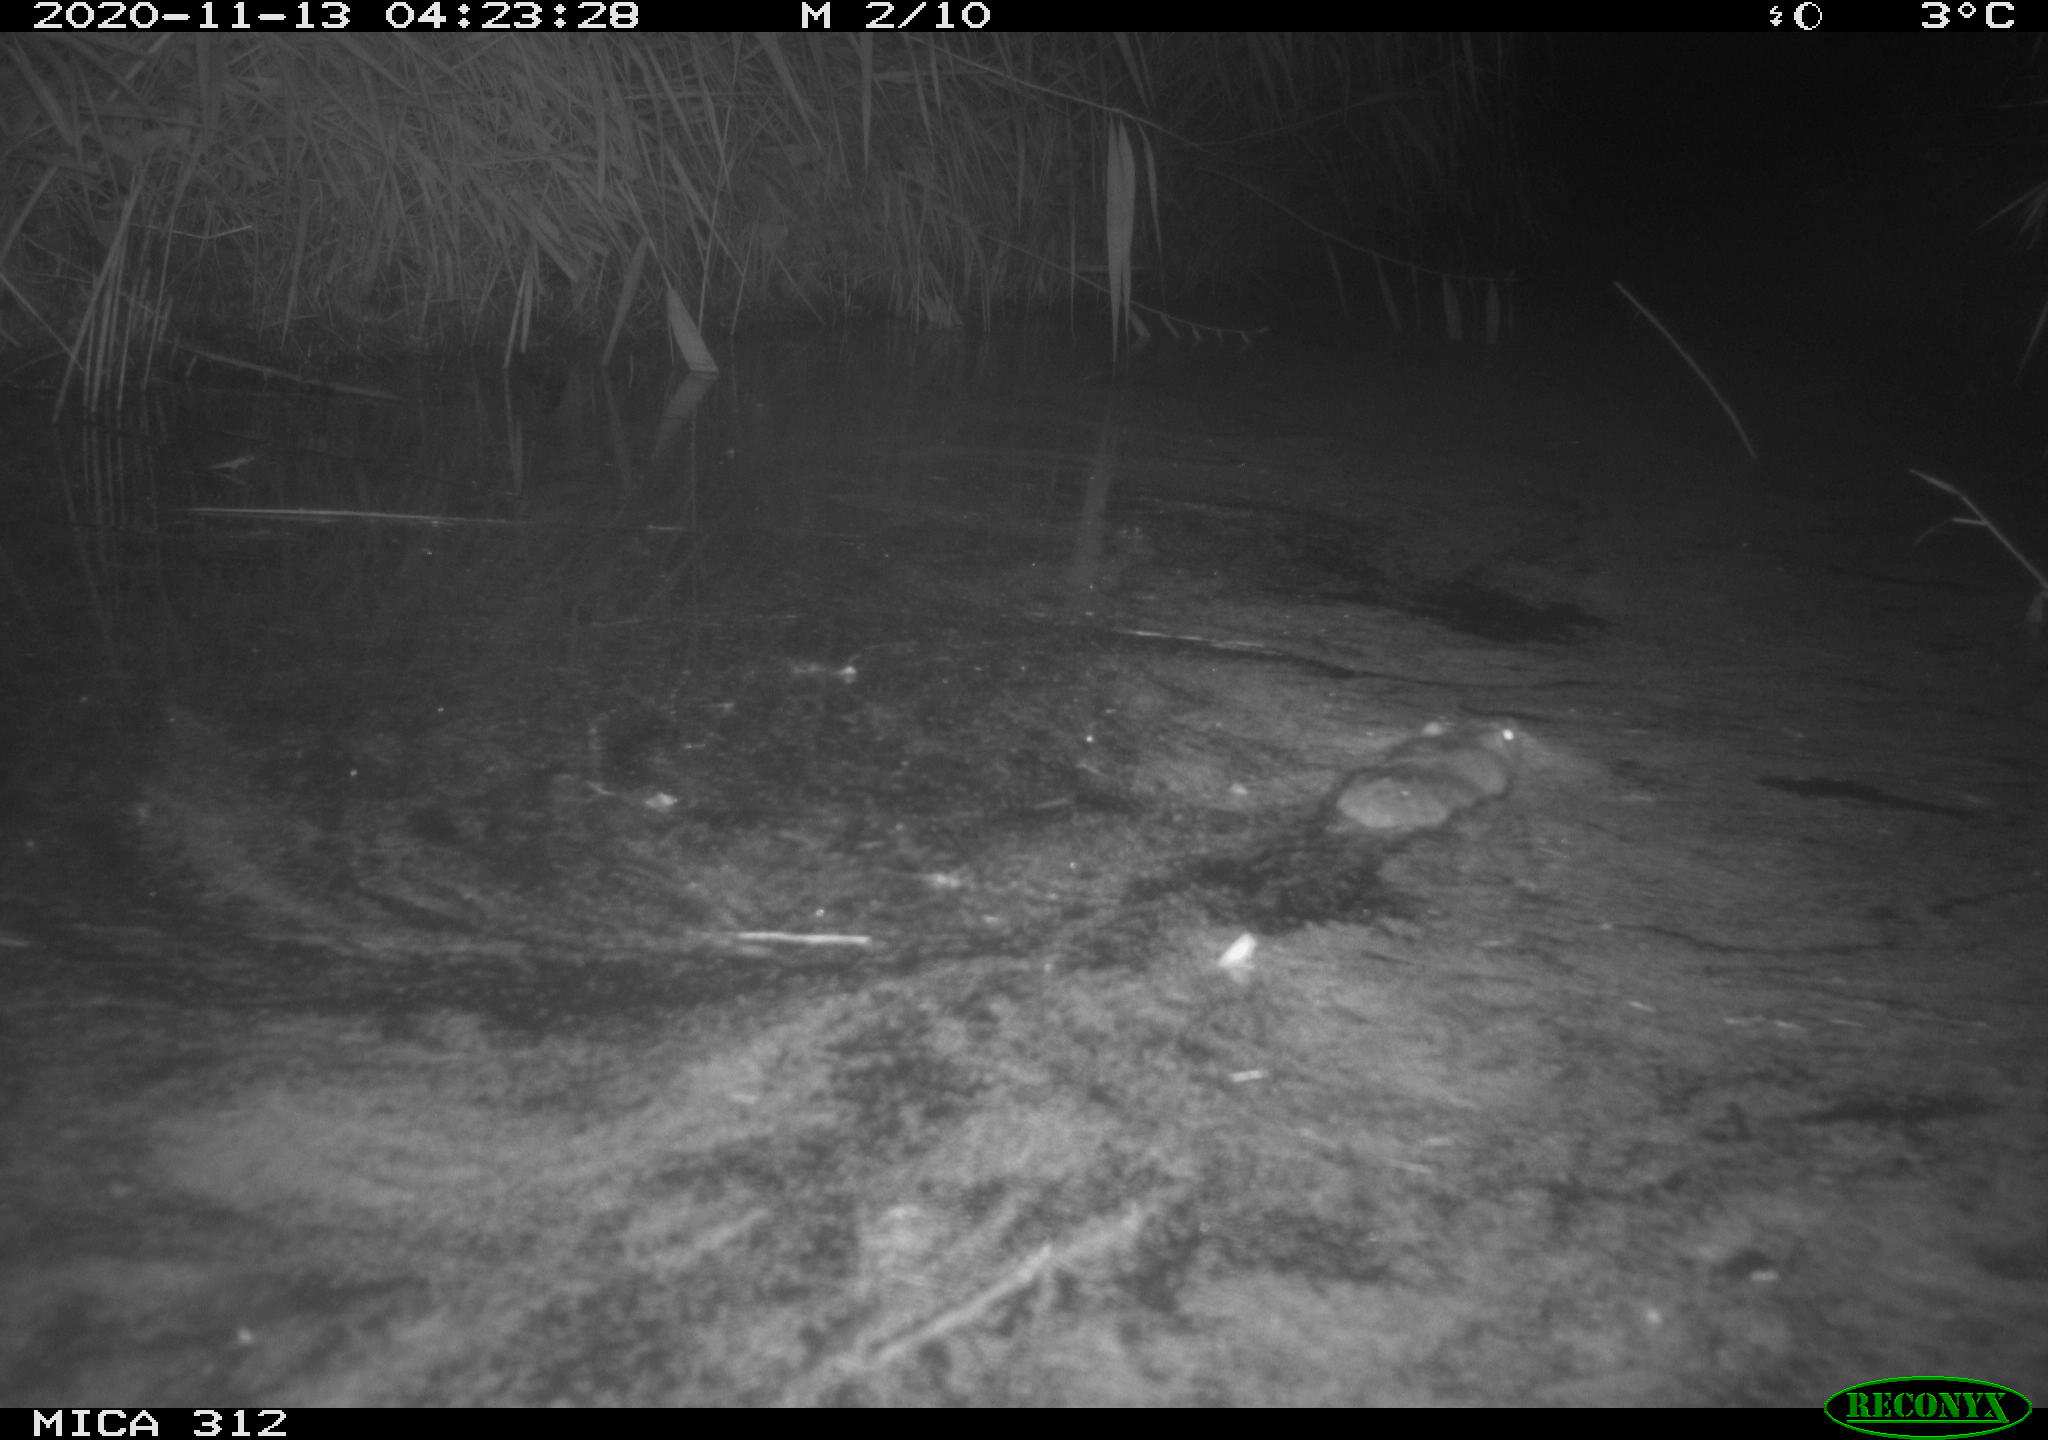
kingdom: Animalia
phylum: Chordata
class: Mammalia
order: Rodentia
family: Muridae
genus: Rattus
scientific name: Rattus norvegicus
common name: Brown rat
